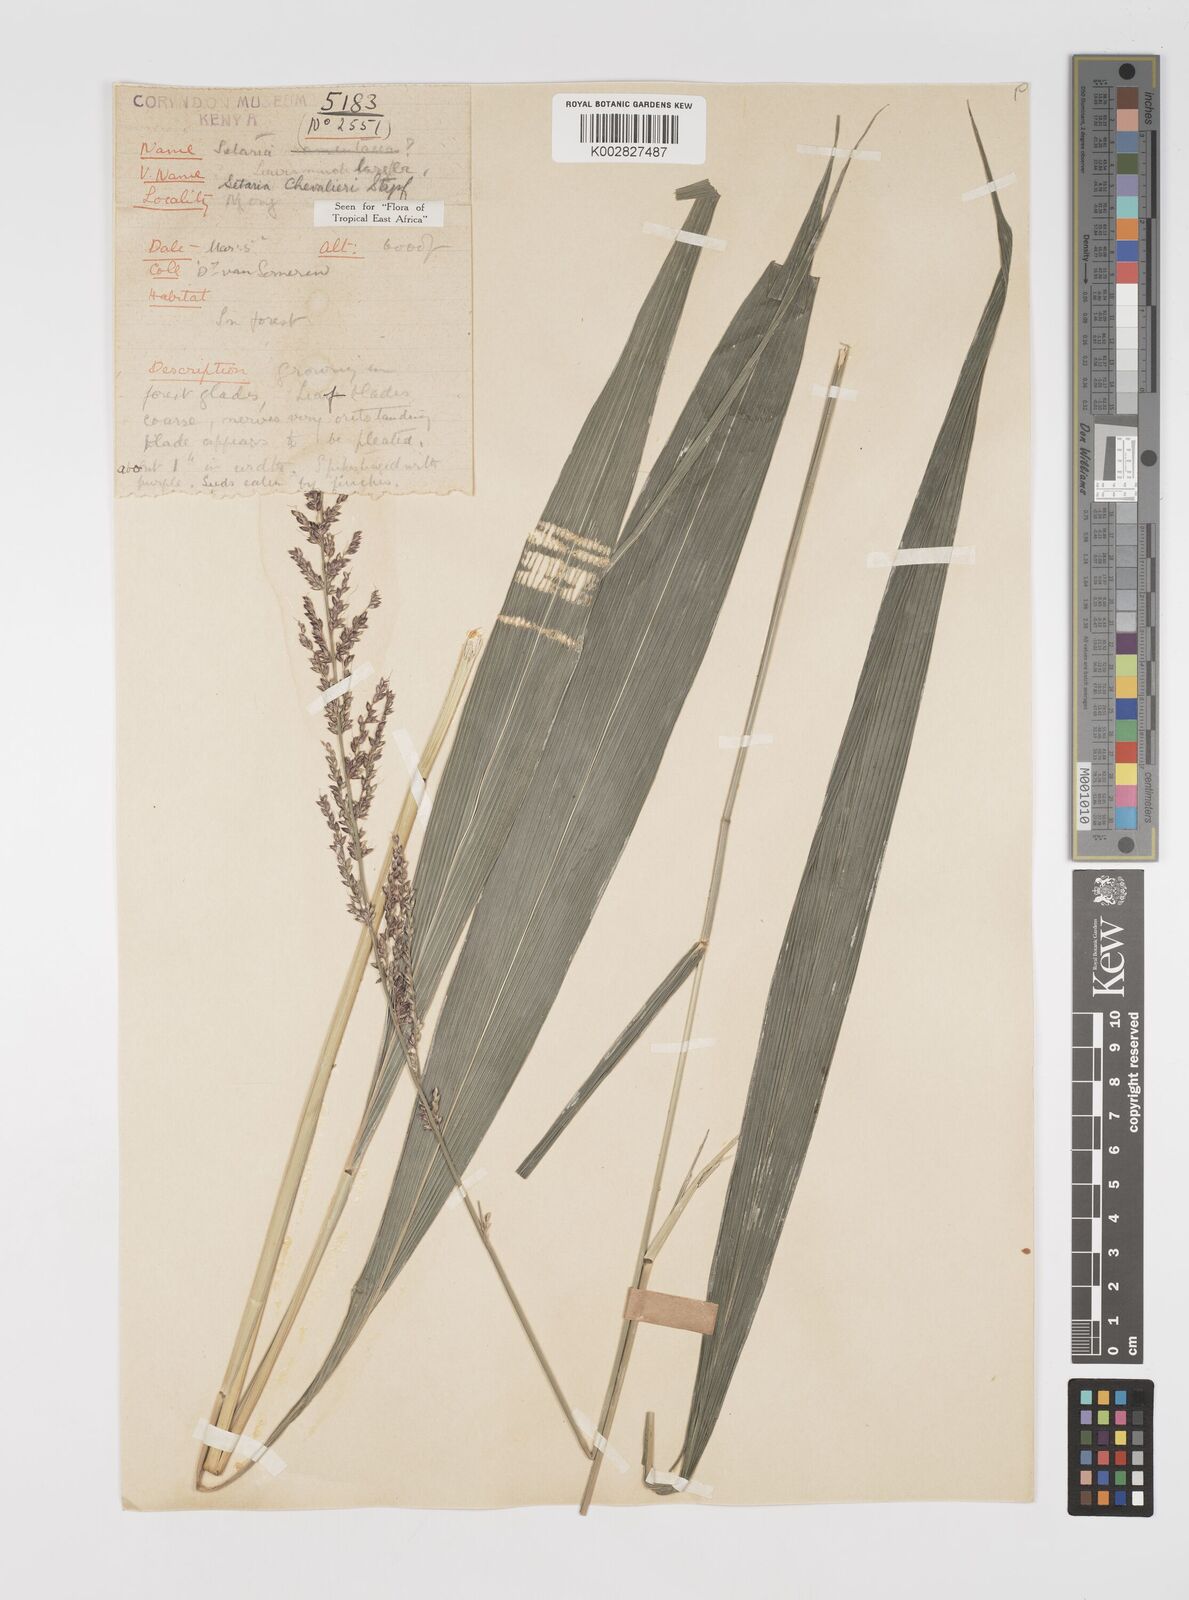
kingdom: Plantae
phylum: Tracheophyta
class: Liliopsida
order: Poales
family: Poaceae
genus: Setaria
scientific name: Setaria megaphylla
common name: Bigleaf bristlegrass
